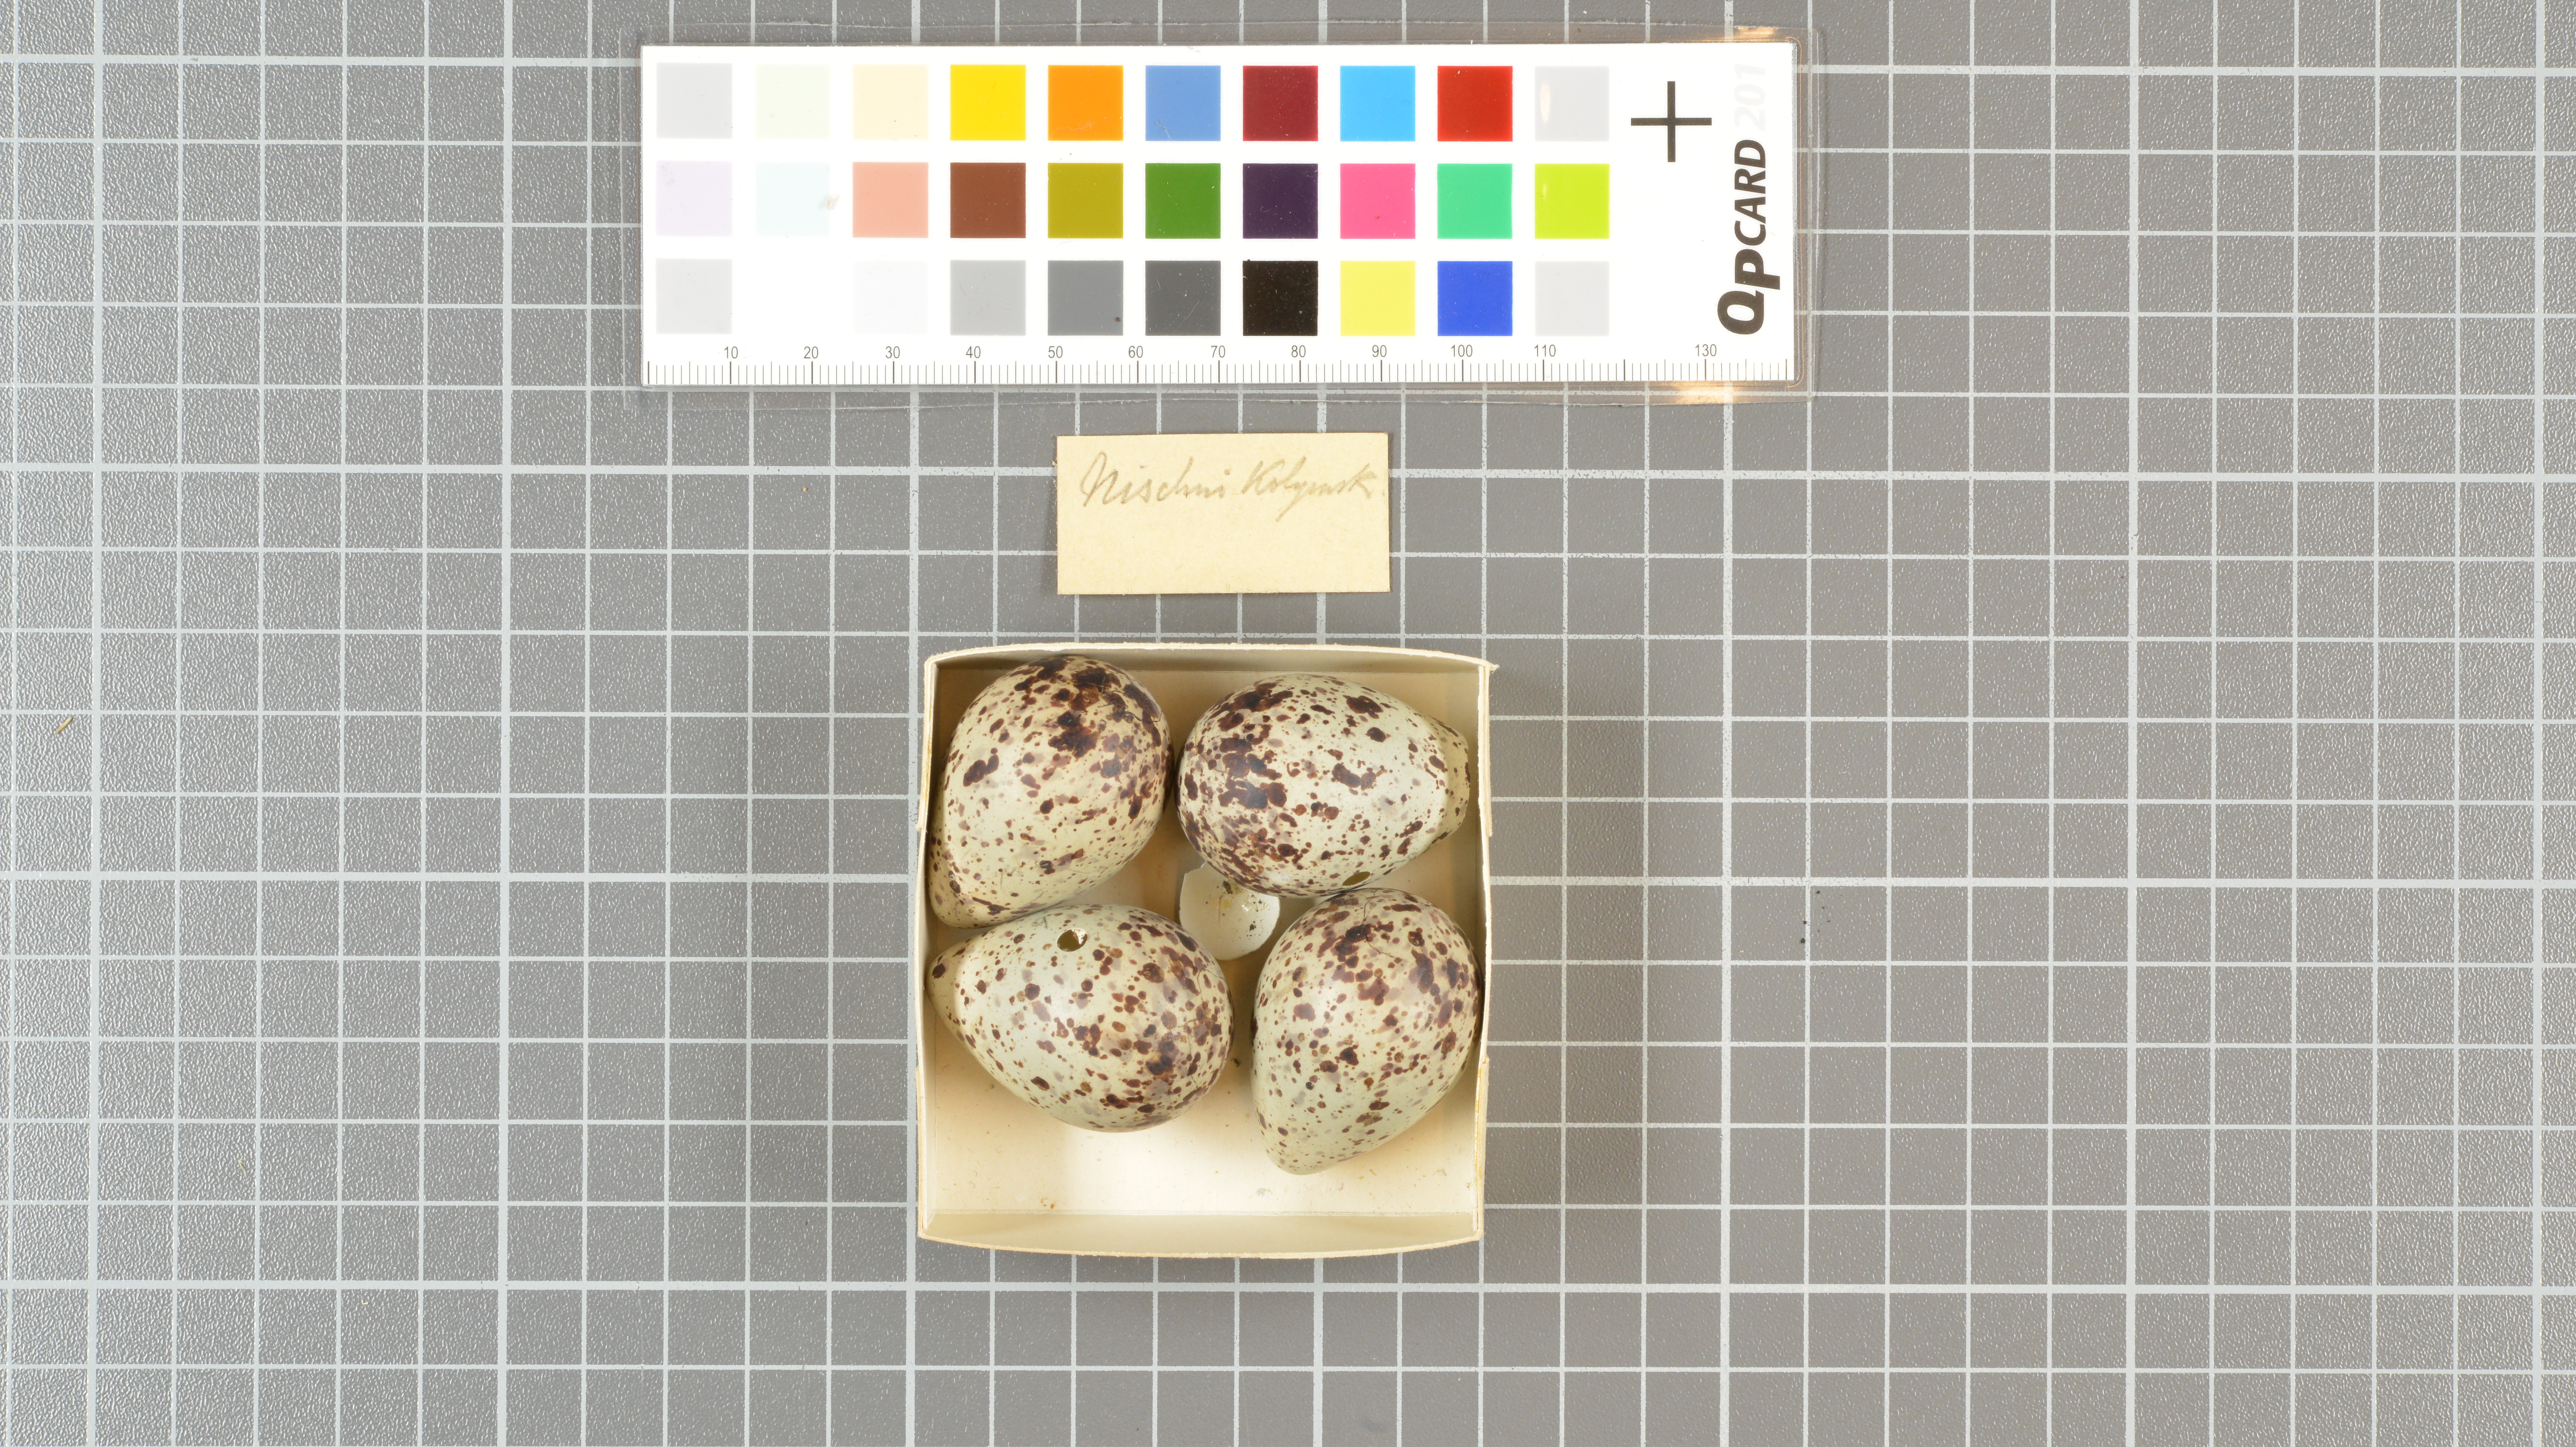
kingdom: Animalia
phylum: Chordata
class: Aves
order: Charadriiformes
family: Scolopacidae
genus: Tringa
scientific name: Tringa ochropus
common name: Green sandpiper
